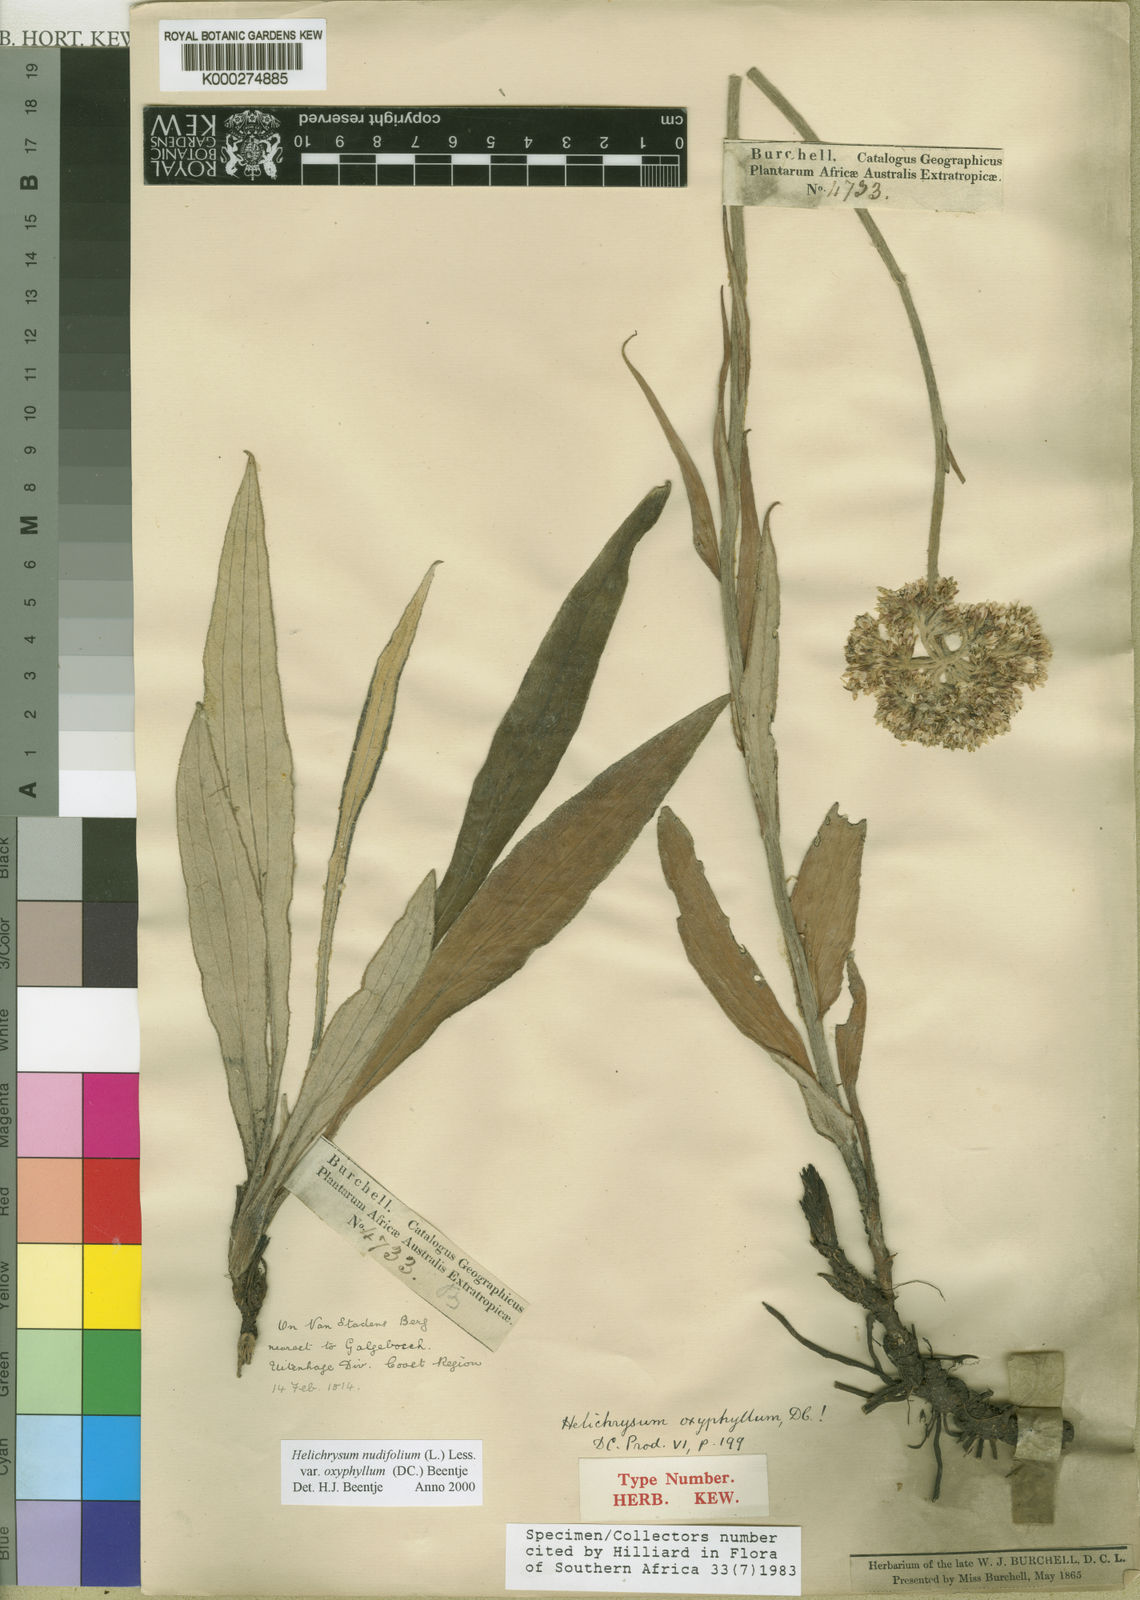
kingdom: Plantae
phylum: Tracheophyta
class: Magnoliopsida
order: Asterales
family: Asteraceae
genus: Helichrysum
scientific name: Helichrysum nudifolium
